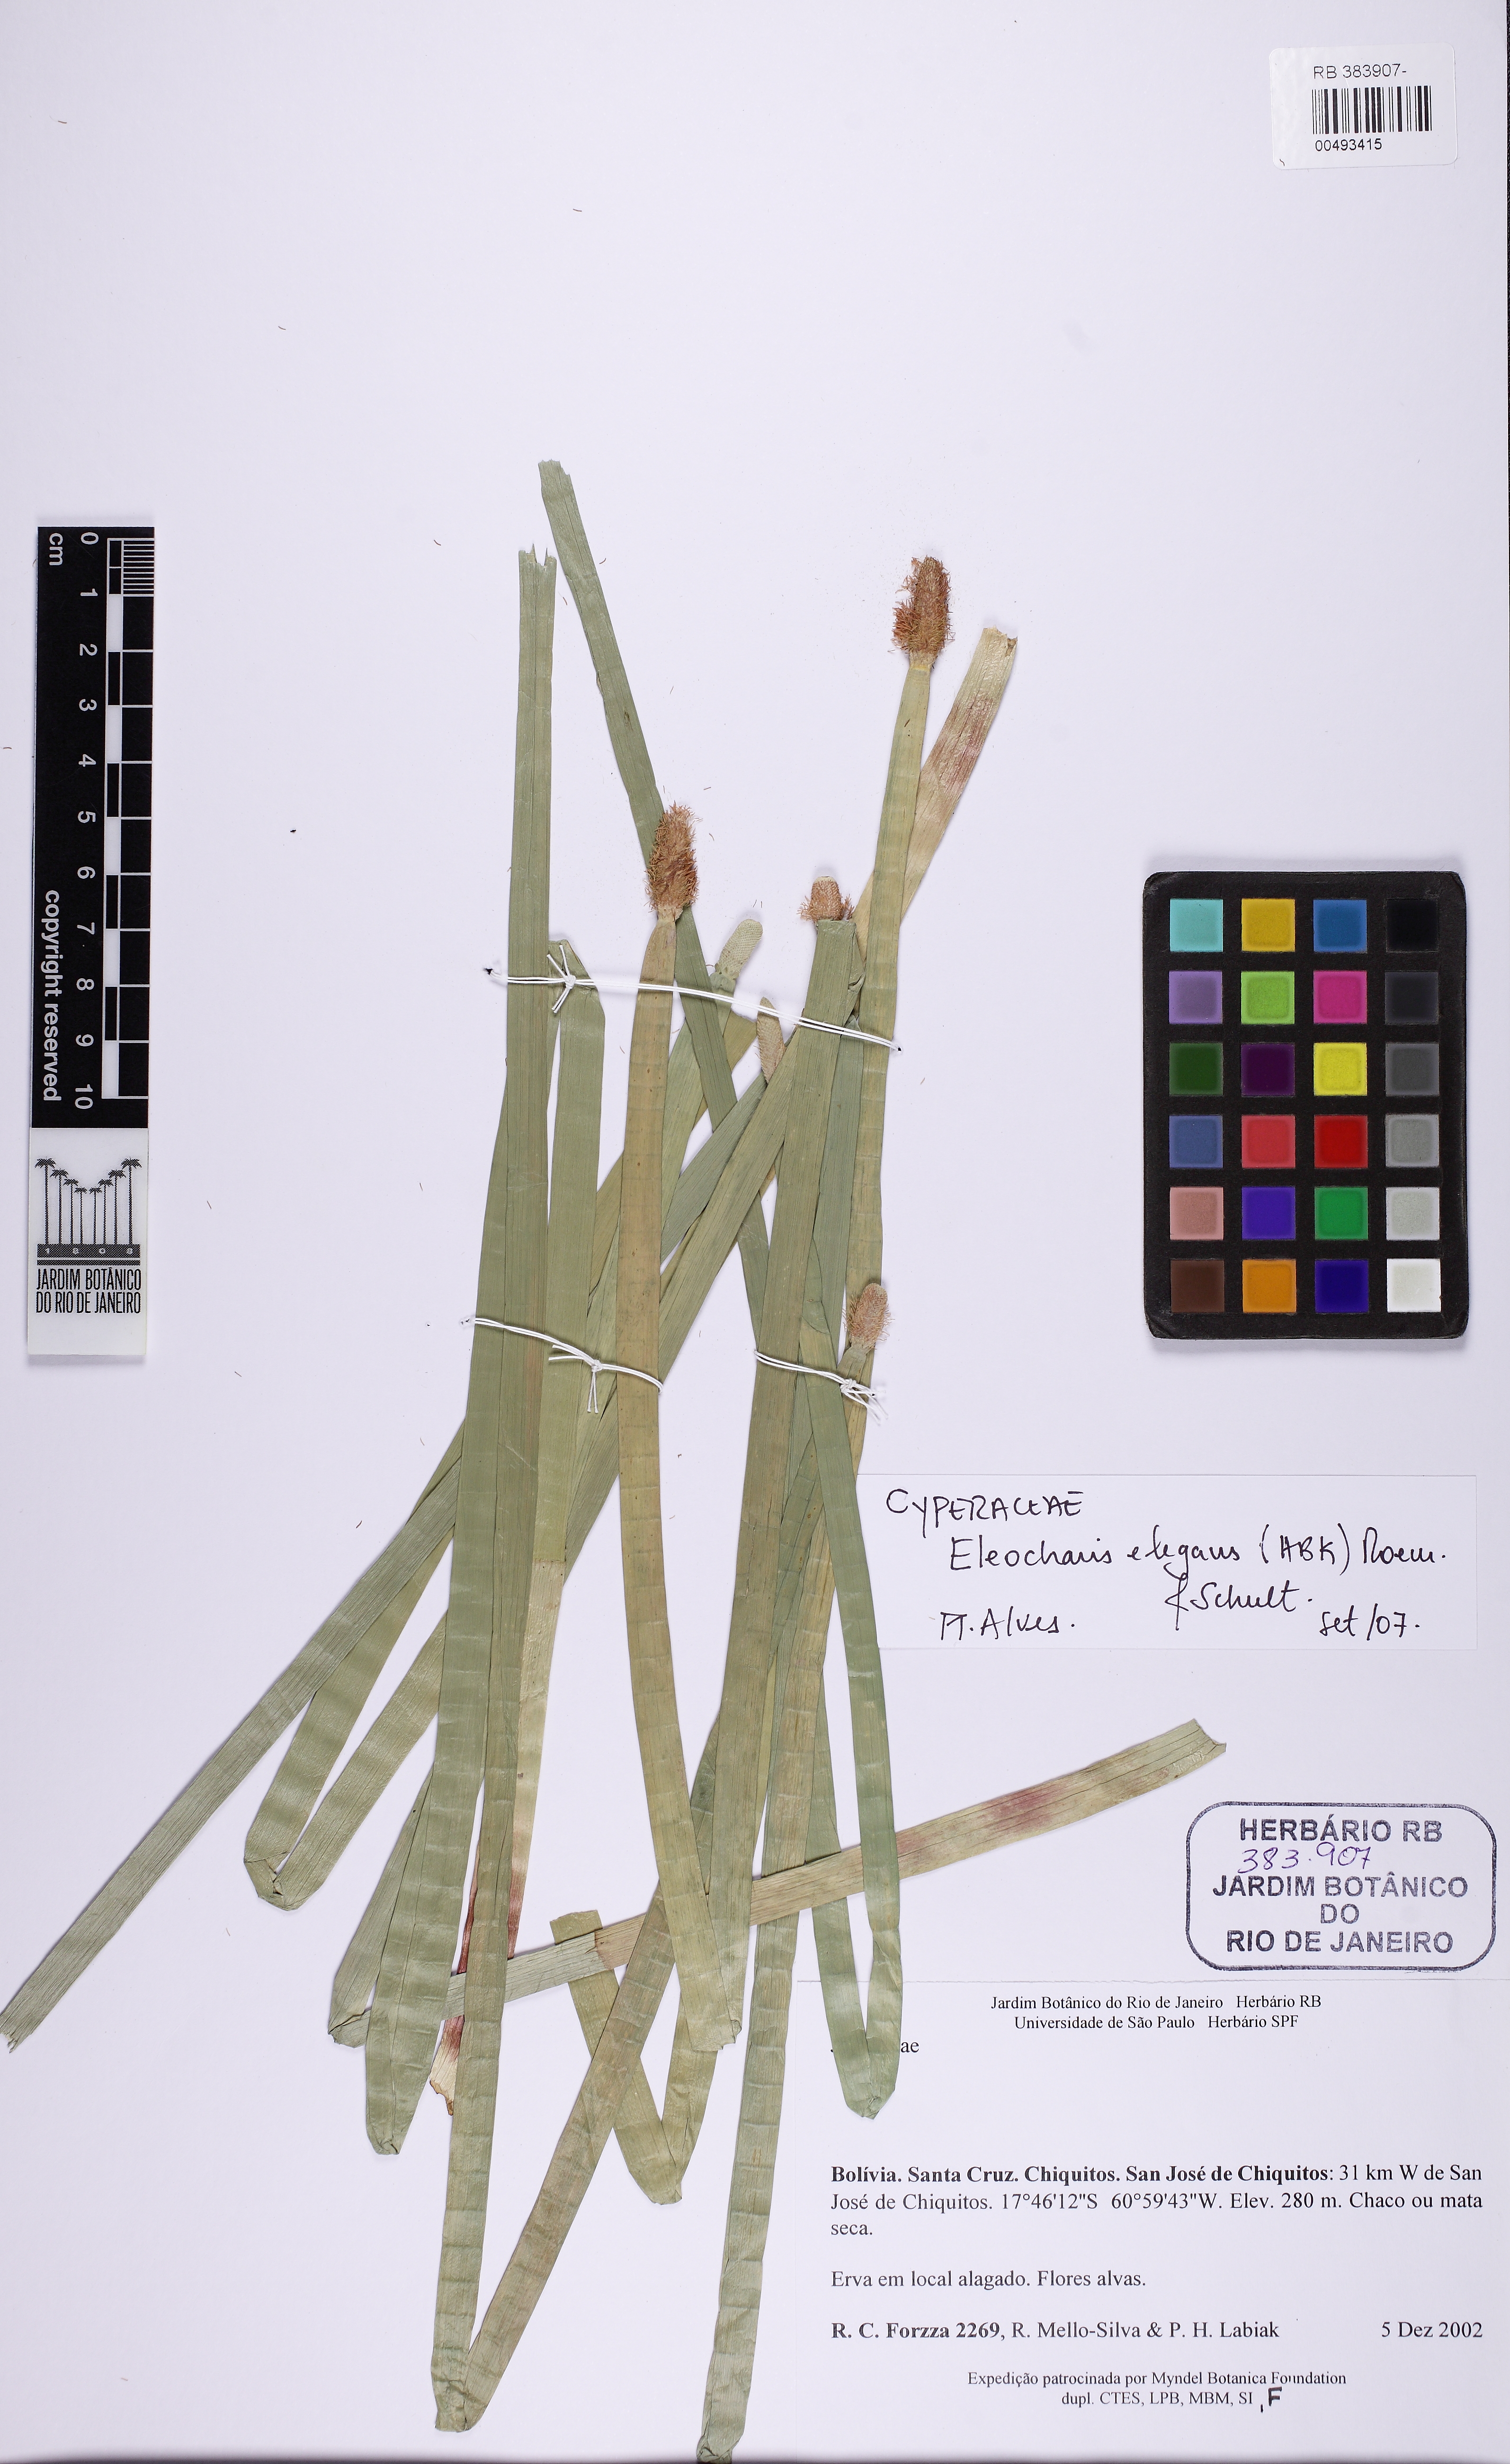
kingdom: Plantae
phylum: Tracheophyta
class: Liliopsida
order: Poales
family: Cyperaceae
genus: Eleocharis
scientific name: Eleocharis elegans
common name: Elegant spike-rush
